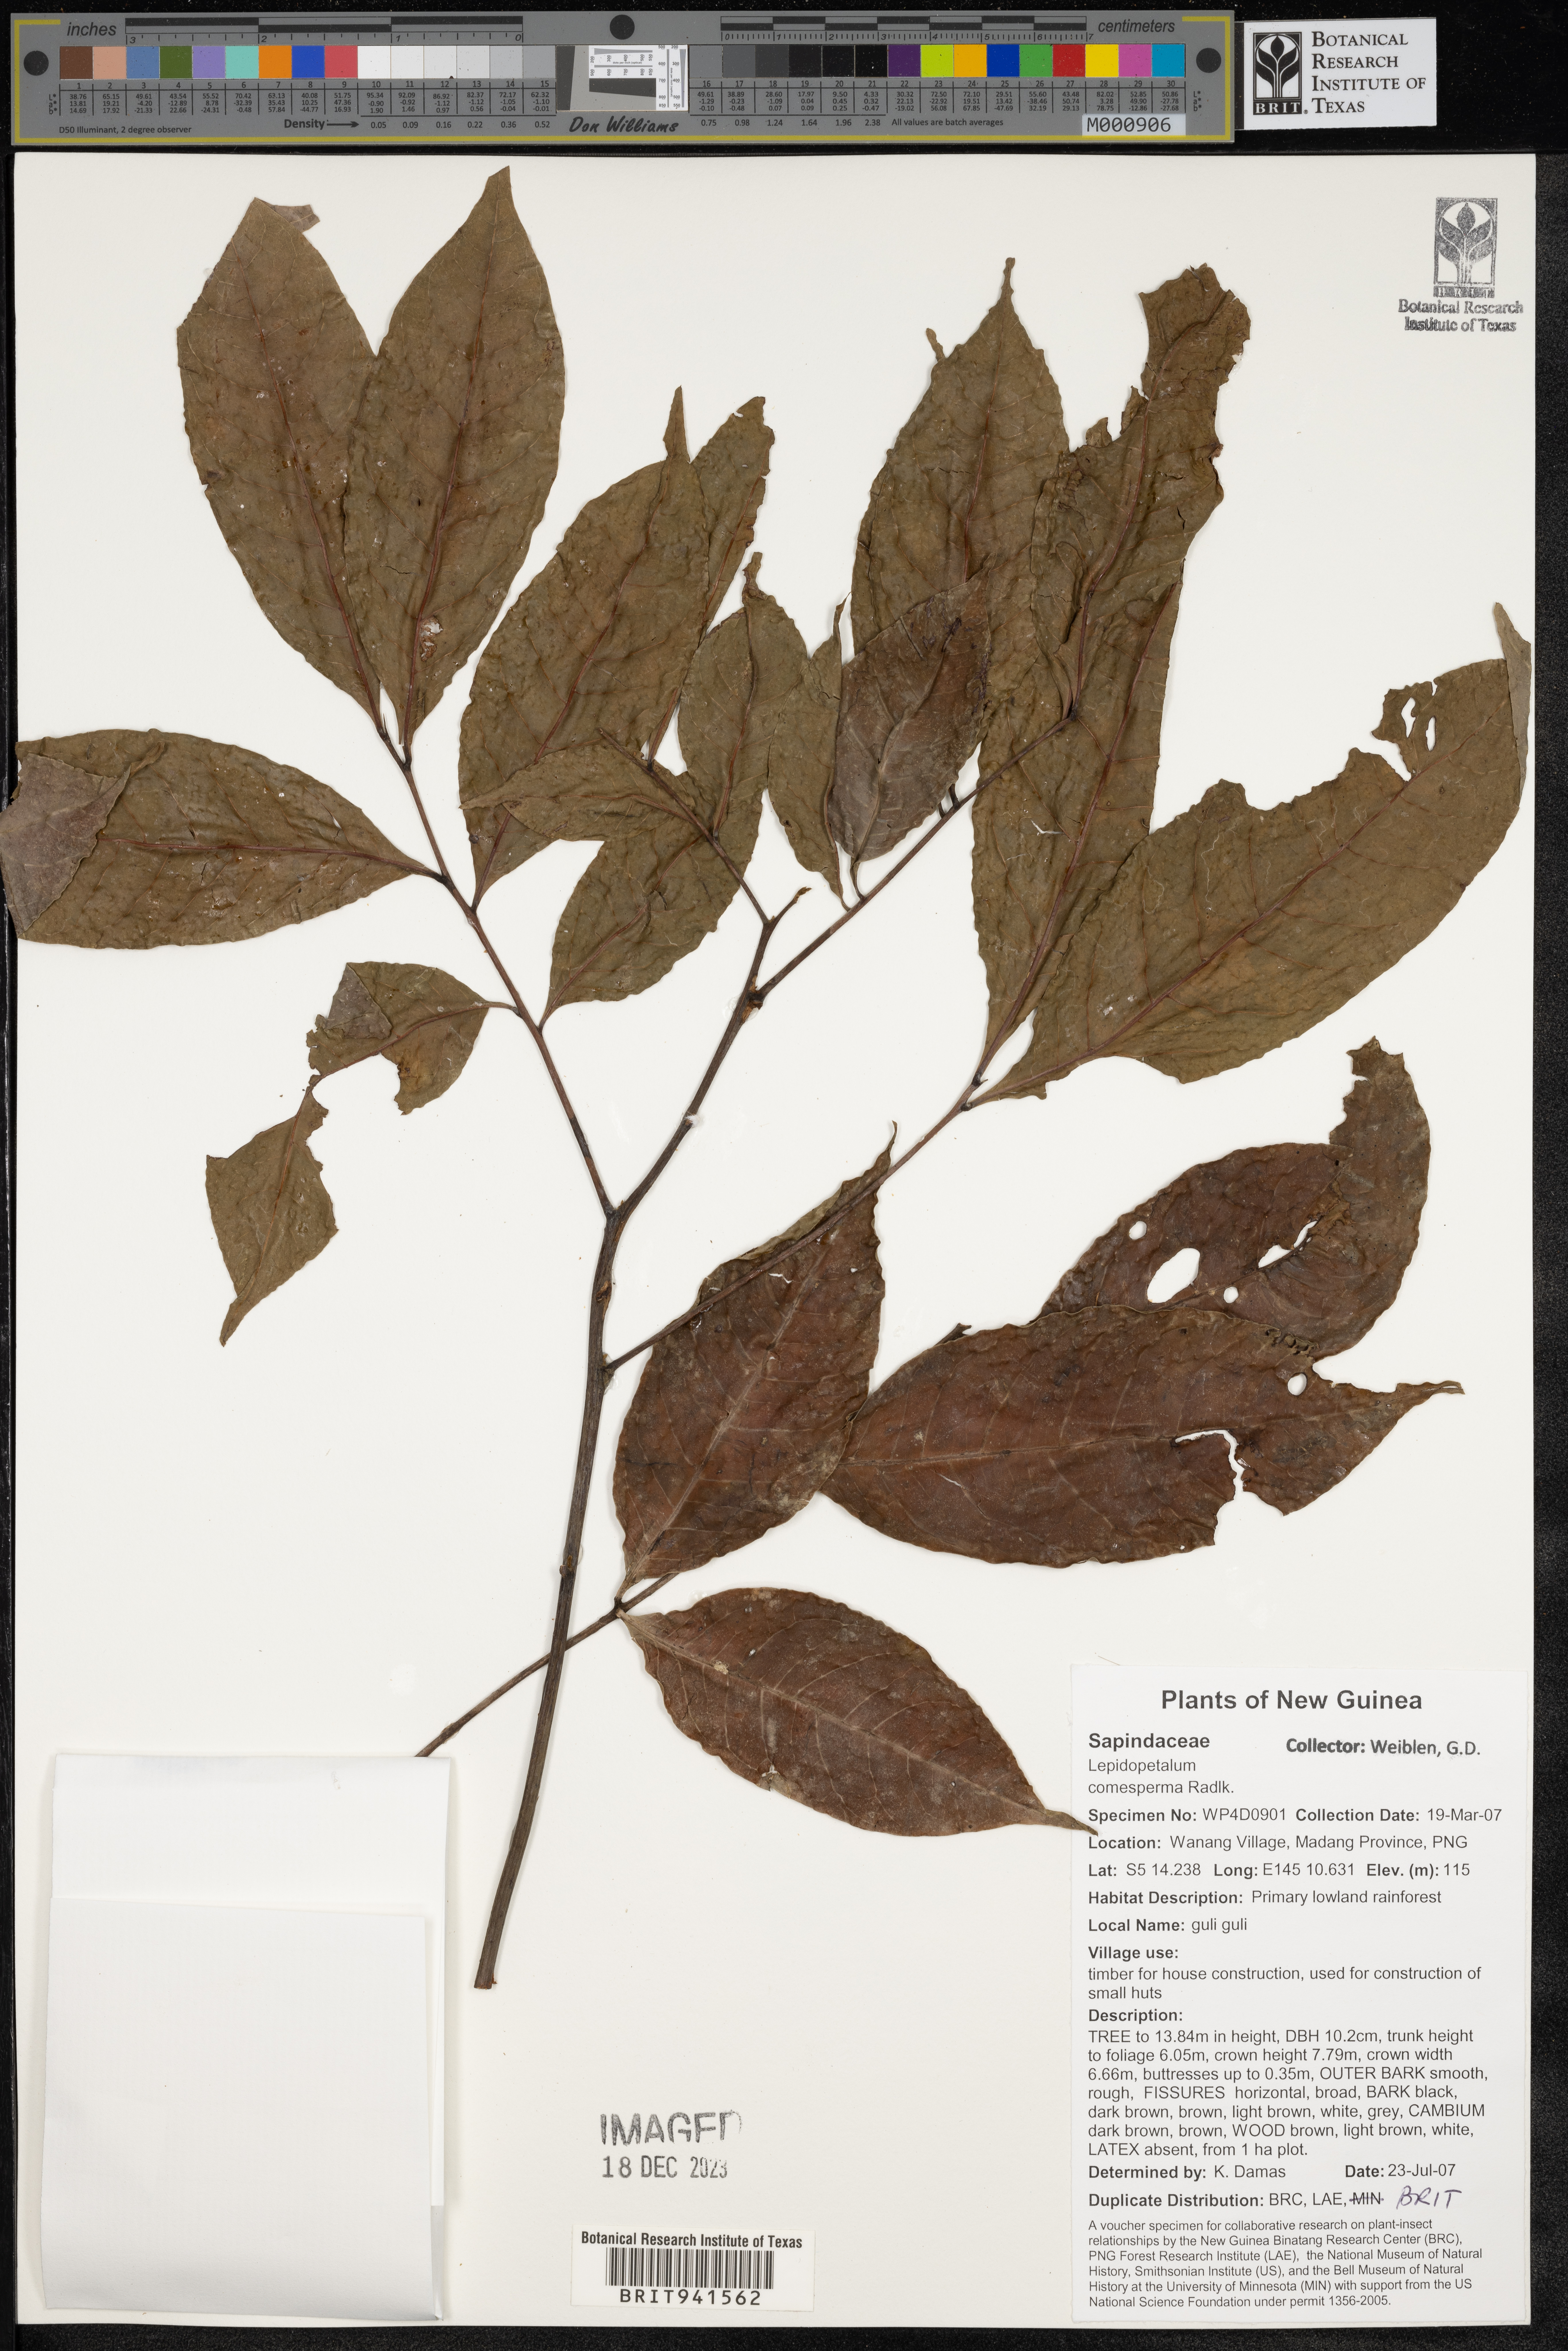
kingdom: Plantae
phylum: Tracheophyta
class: Magnoliopsida
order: Sapindales
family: Sapindaceae
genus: Lepidopetalum
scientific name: Lepidopetalum
